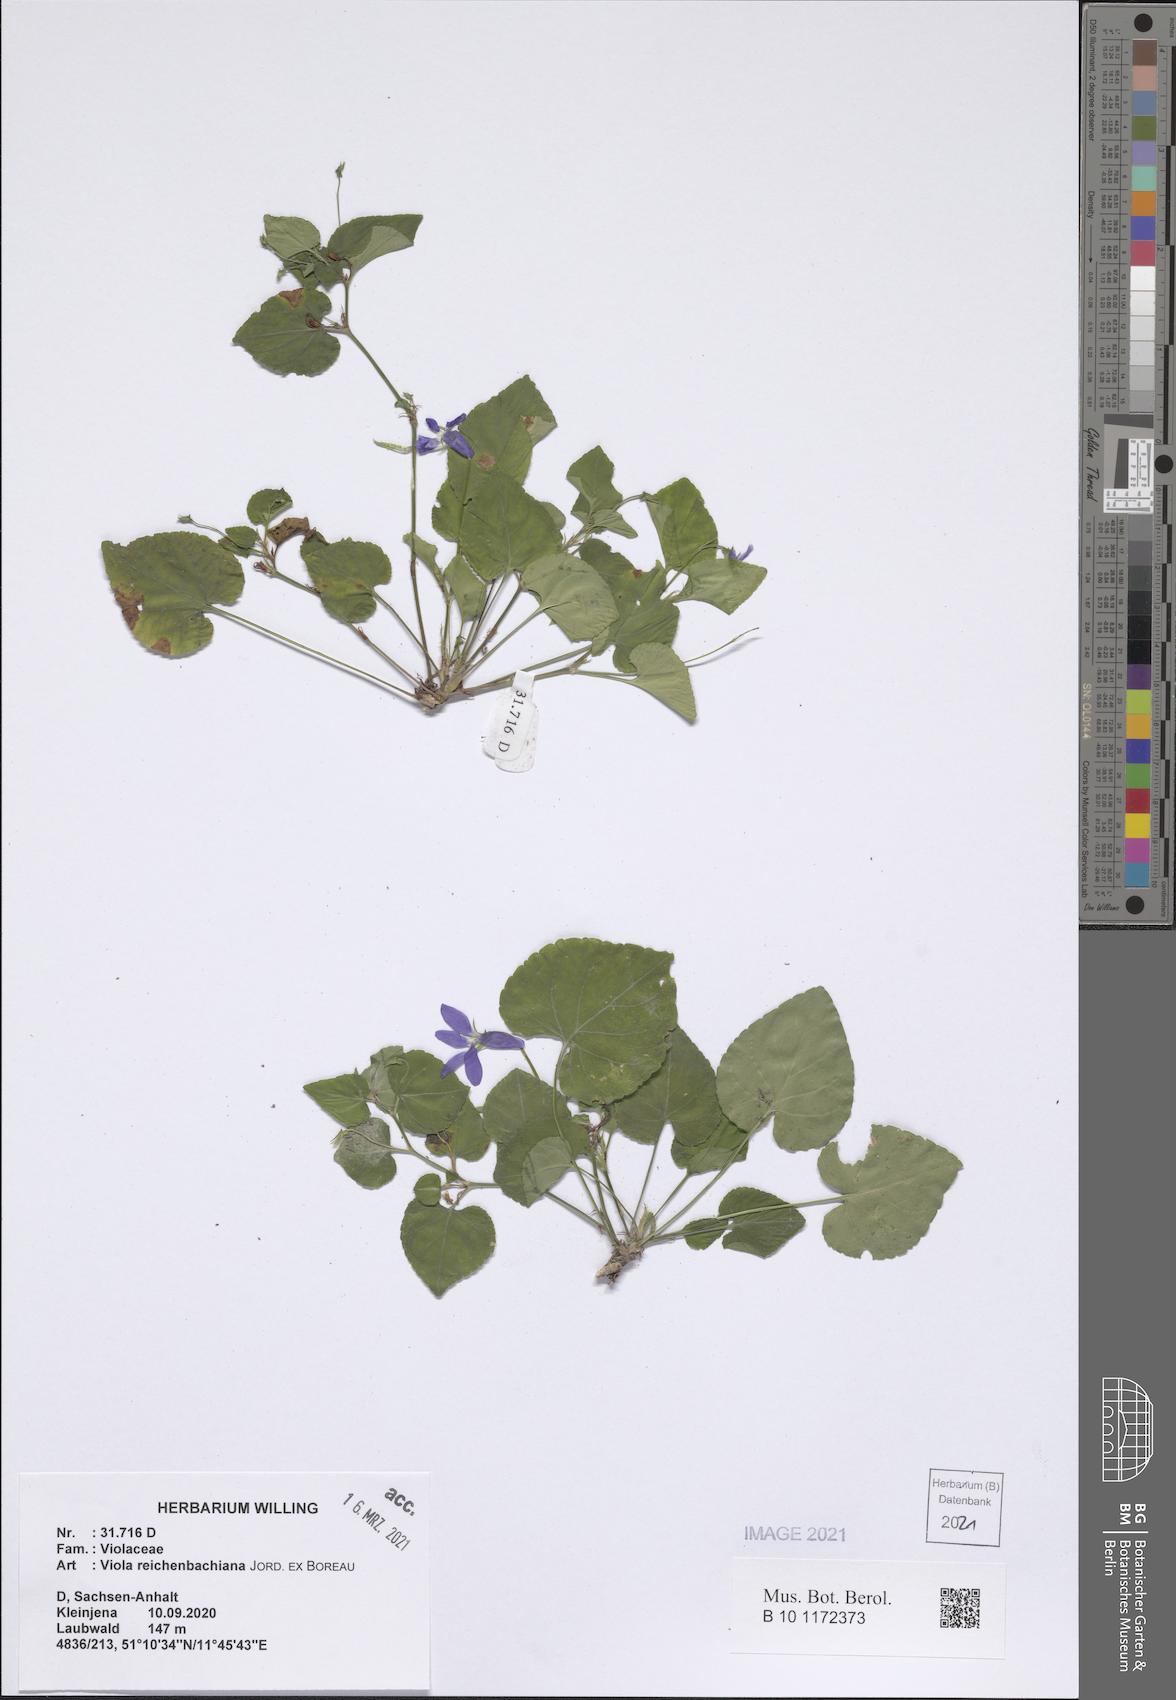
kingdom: Plantae
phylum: Tracheophyta
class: Magnoliopsida
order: Malpighiales
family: Violaceae
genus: Viola
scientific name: Viola reichenbachiana
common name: Early dog-violet
